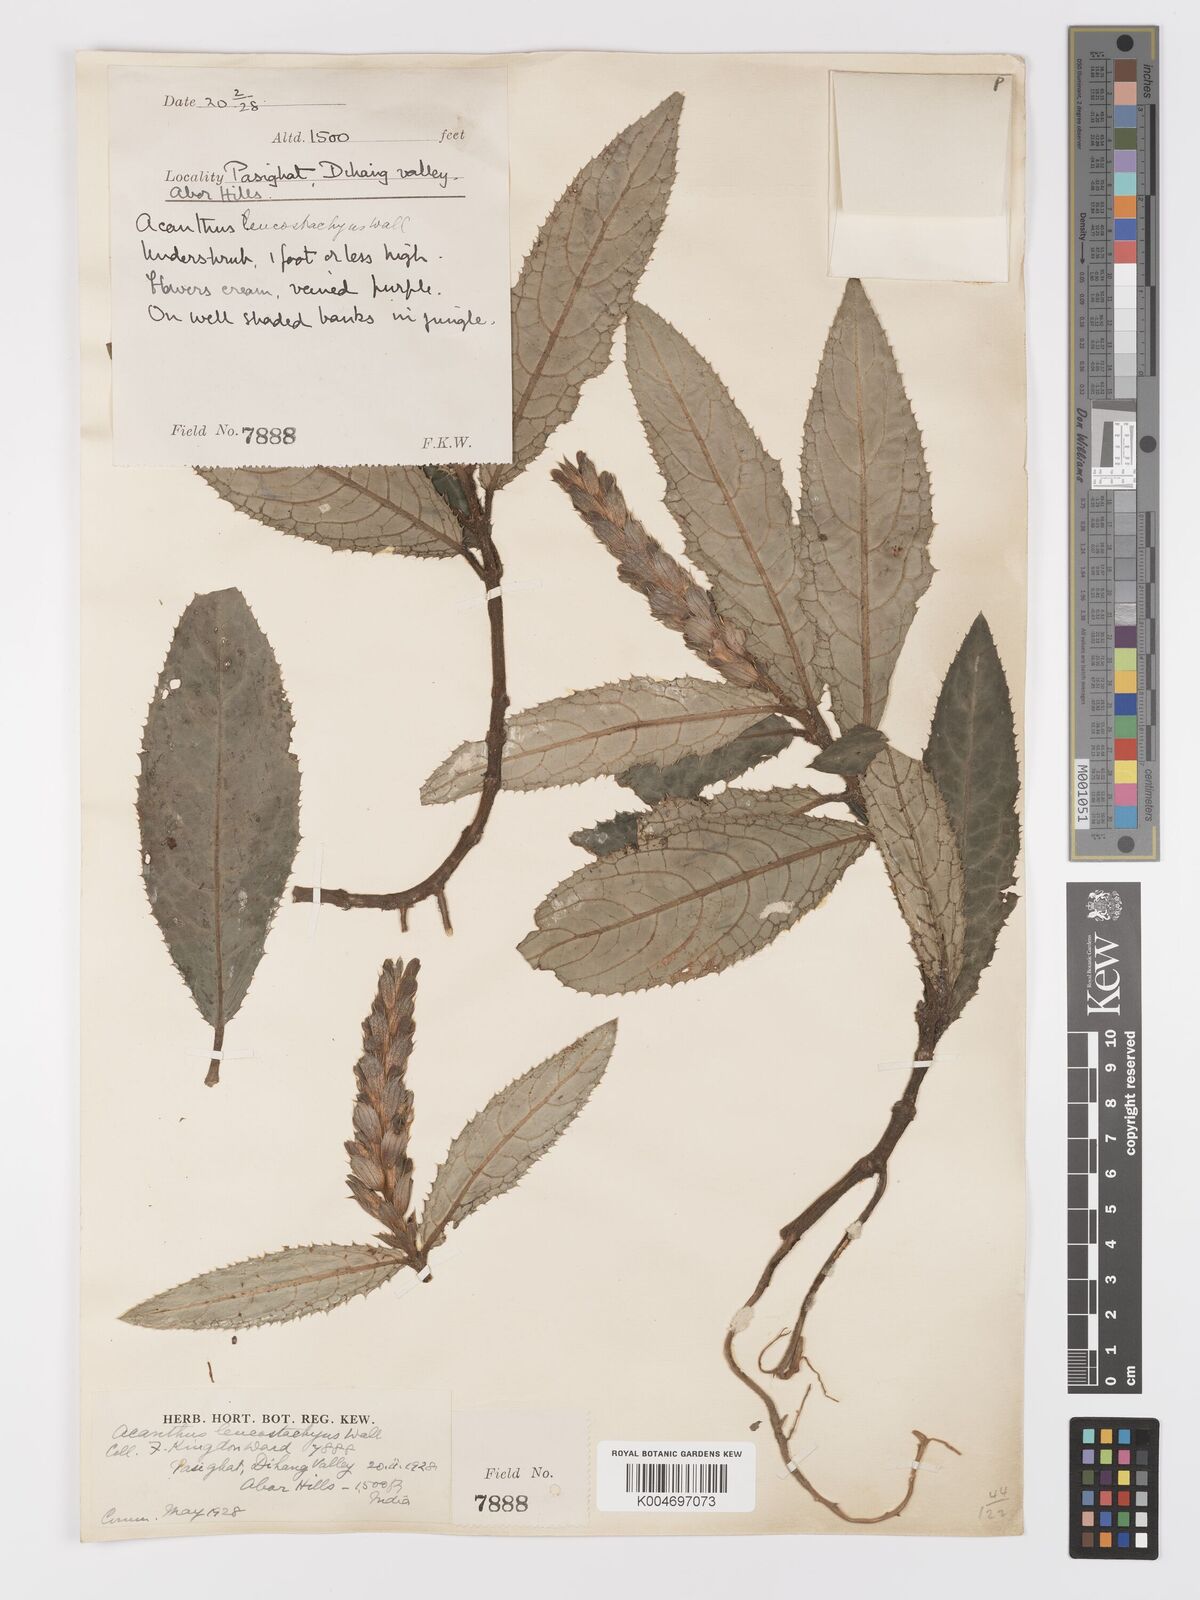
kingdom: Plantae
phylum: Tracheophyta
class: Magnoliopsida
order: Lamiales
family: Acanthaceae
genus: Acanthus
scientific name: Acanthus leucostachyus
